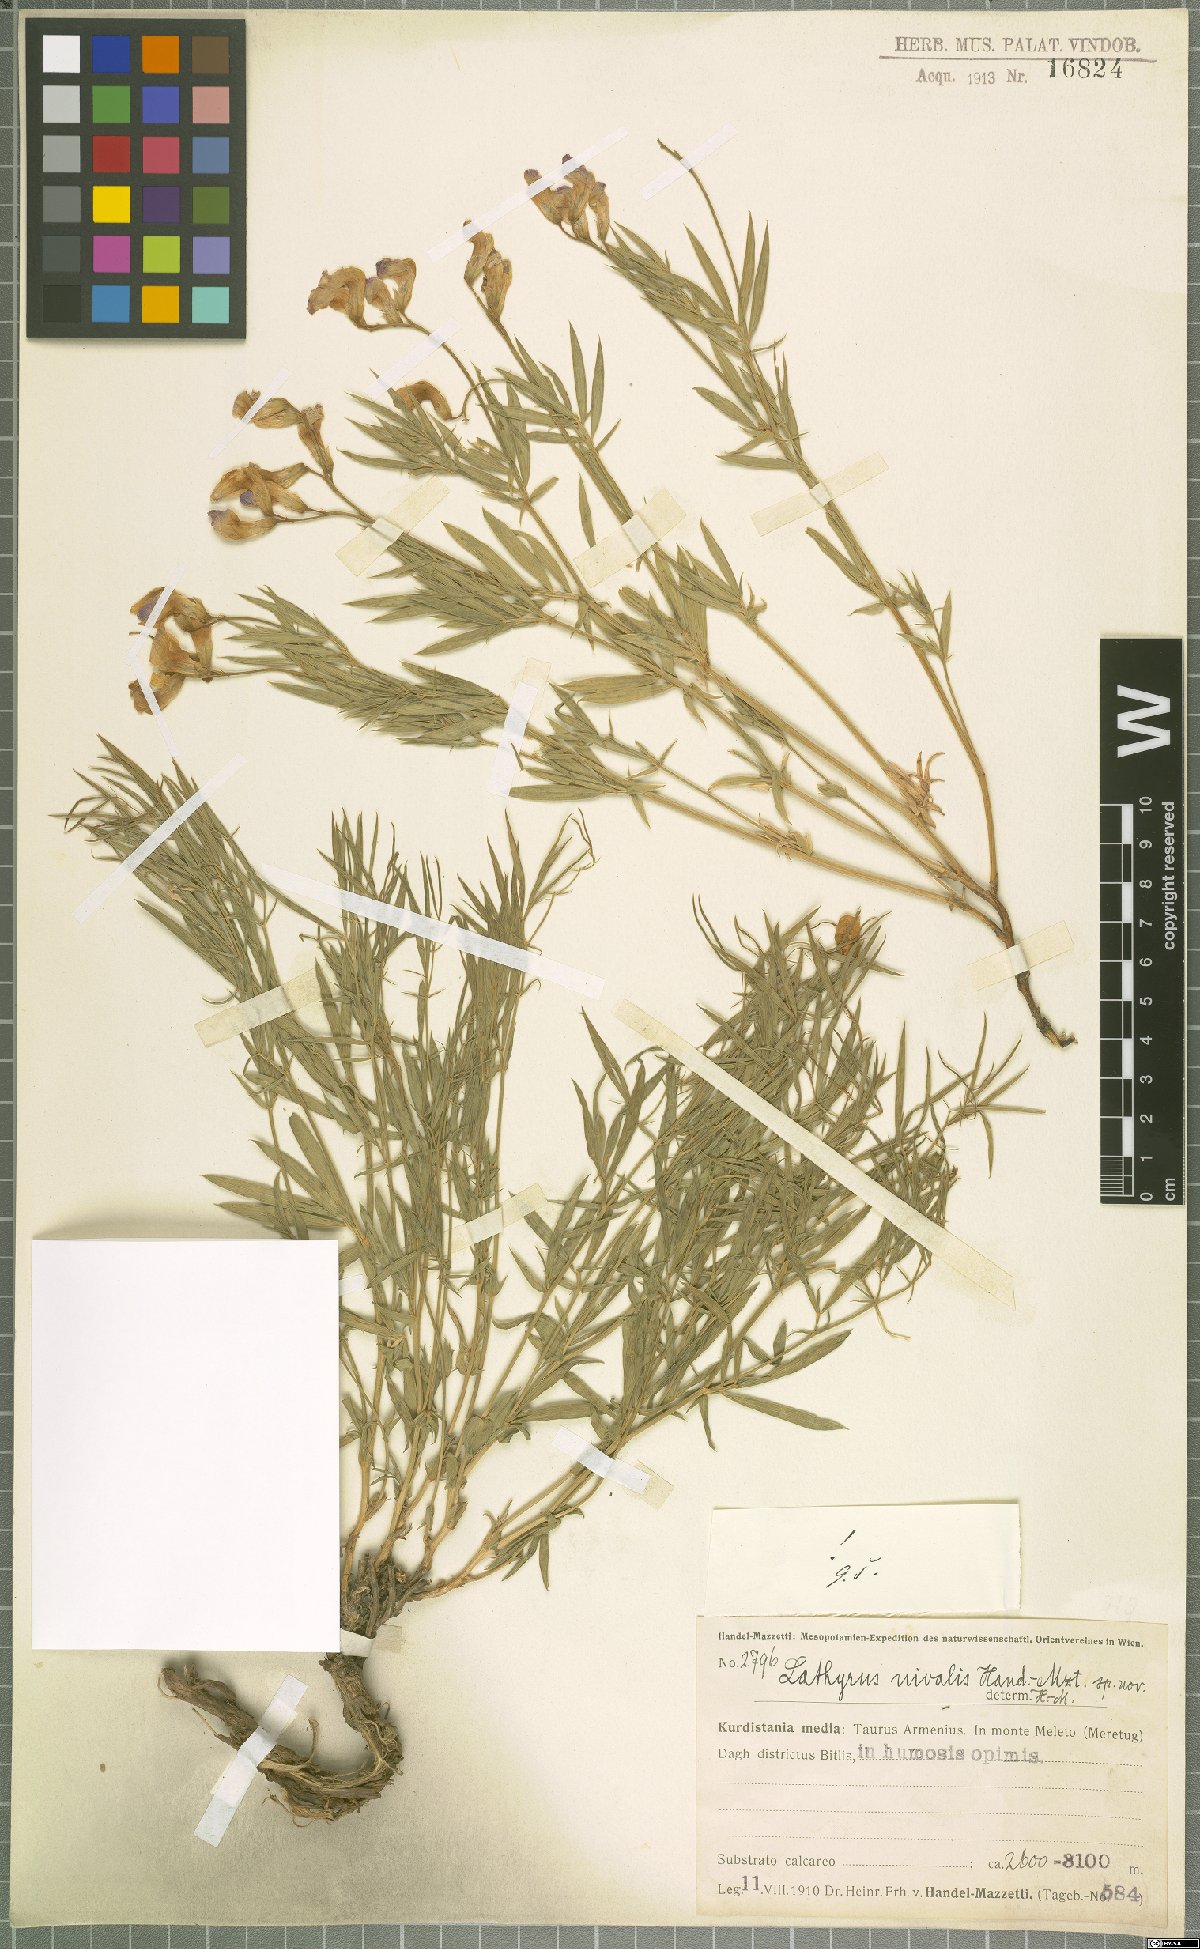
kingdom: Plantae
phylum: Tracheophyta
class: Magnoliopsida
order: Fabales
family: Fabaceae
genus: Lathyrus
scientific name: Lathyrus nivalis
